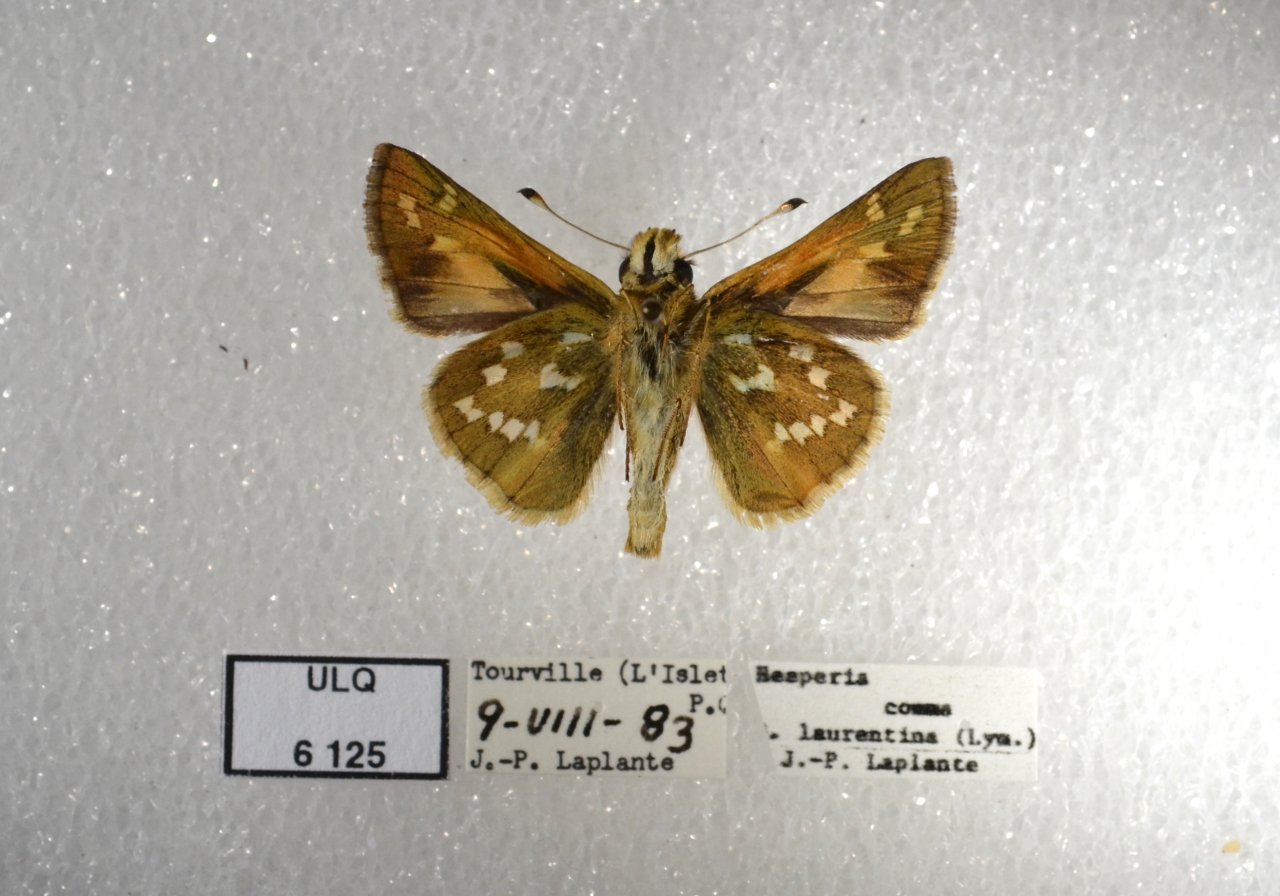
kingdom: Animalia
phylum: Arthropoda
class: Insecta
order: Lepidoptera
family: Hesperiidae
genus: Hesperia
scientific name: Hesperia comma
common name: Common Branded Skipper
